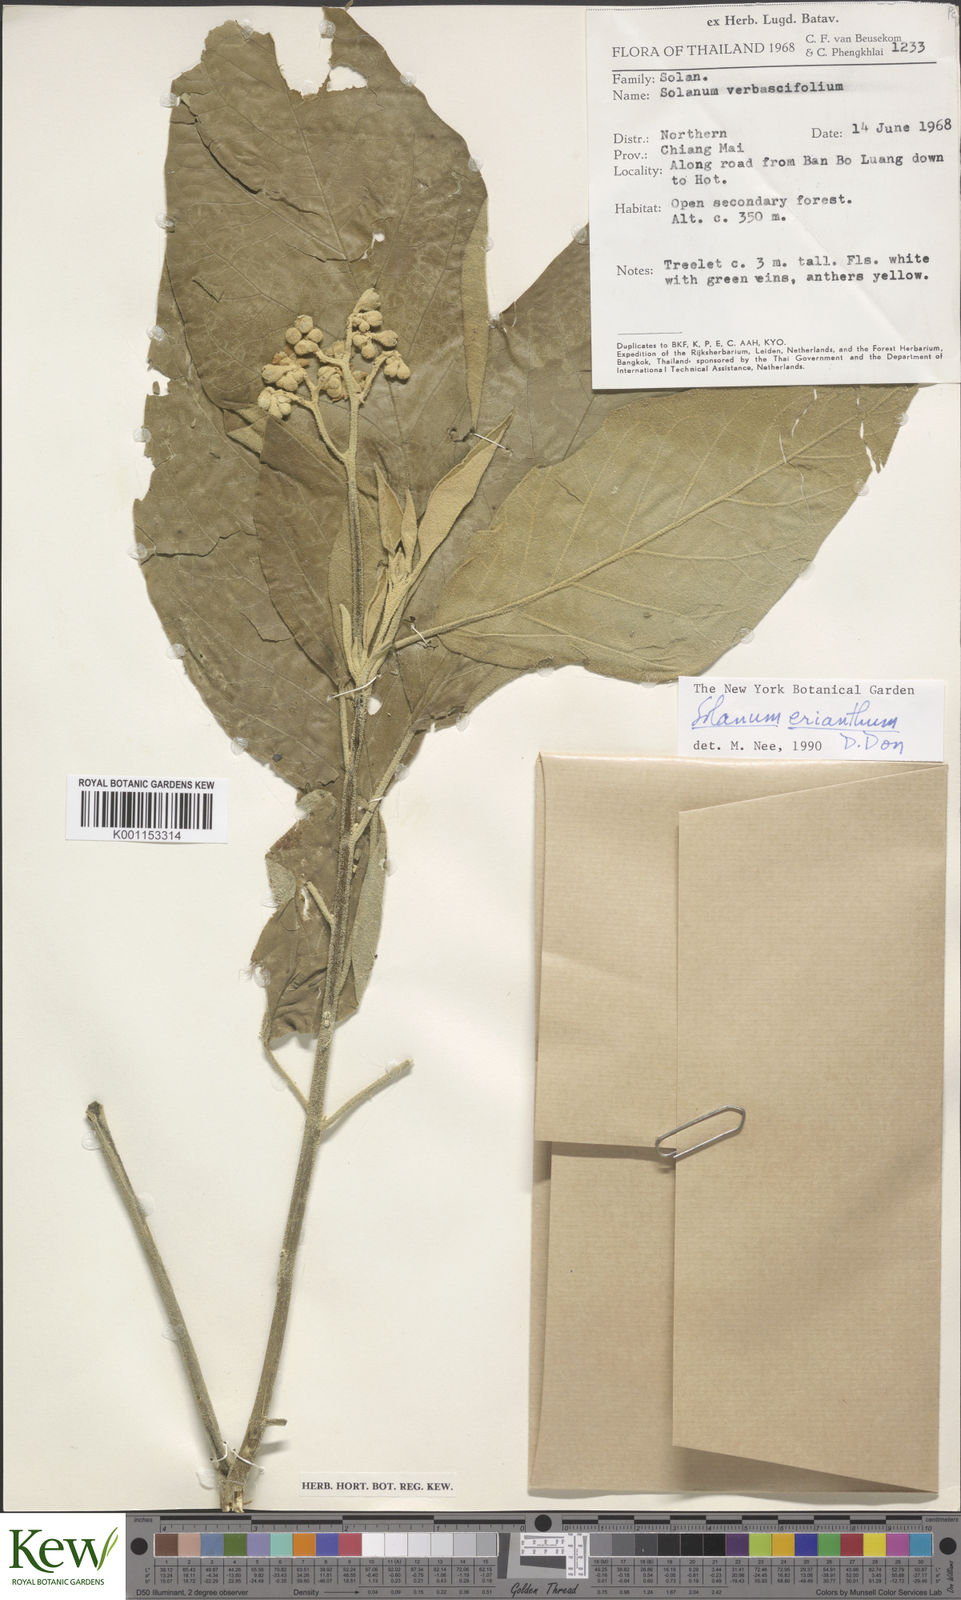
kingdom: Plantae
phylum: Tracheophyta
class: Magnoliopsida
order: Solanales
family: Solanaceae
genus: Solanum
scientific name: Solanum erianthum
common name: Tobacco-tree
